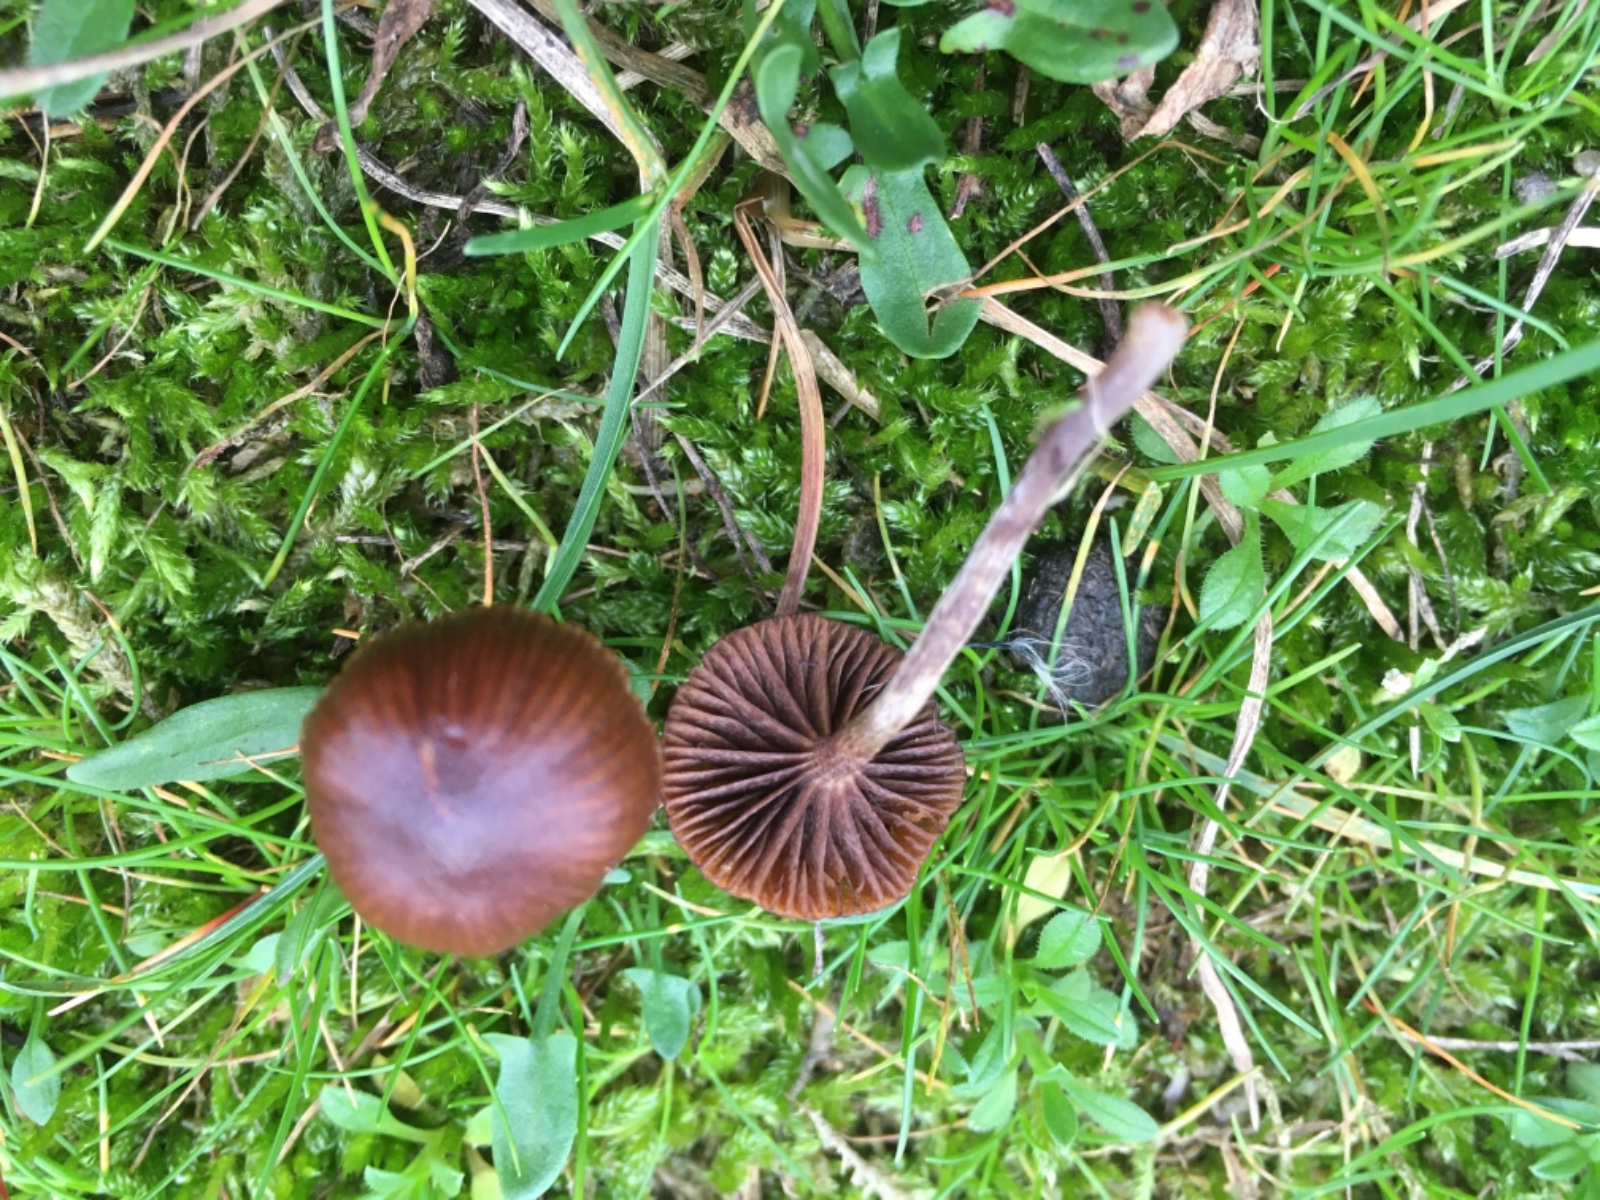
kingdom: Fungi
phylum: Basidiomycota
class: Agaricomycetes
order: Agaricales
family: Strophariaceae
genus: Deconica
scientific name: Deconica montana
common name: rødbrun stråhat
